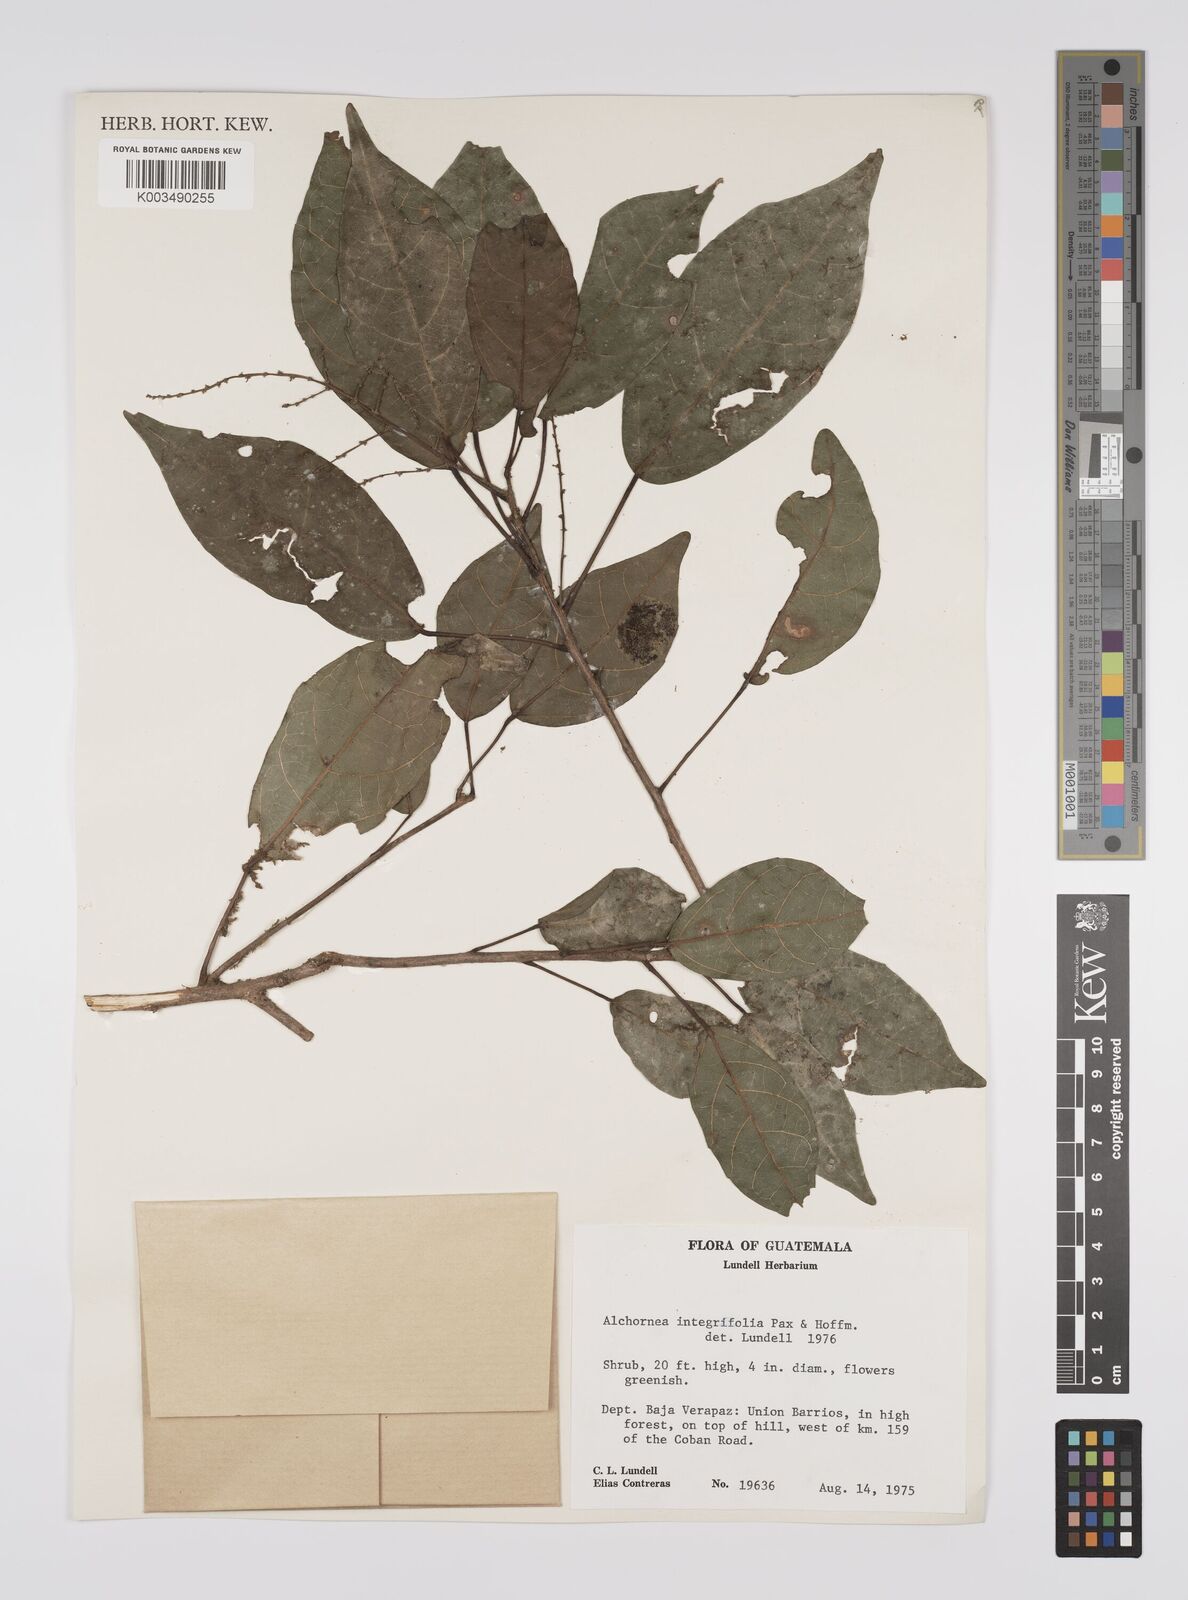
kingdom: Plantae
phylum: Tracheophyta
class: Magnoliopsida
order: Malpighiales
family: Euphorbiaceae
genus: Alchornea
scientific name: Alchornea integrifolia
